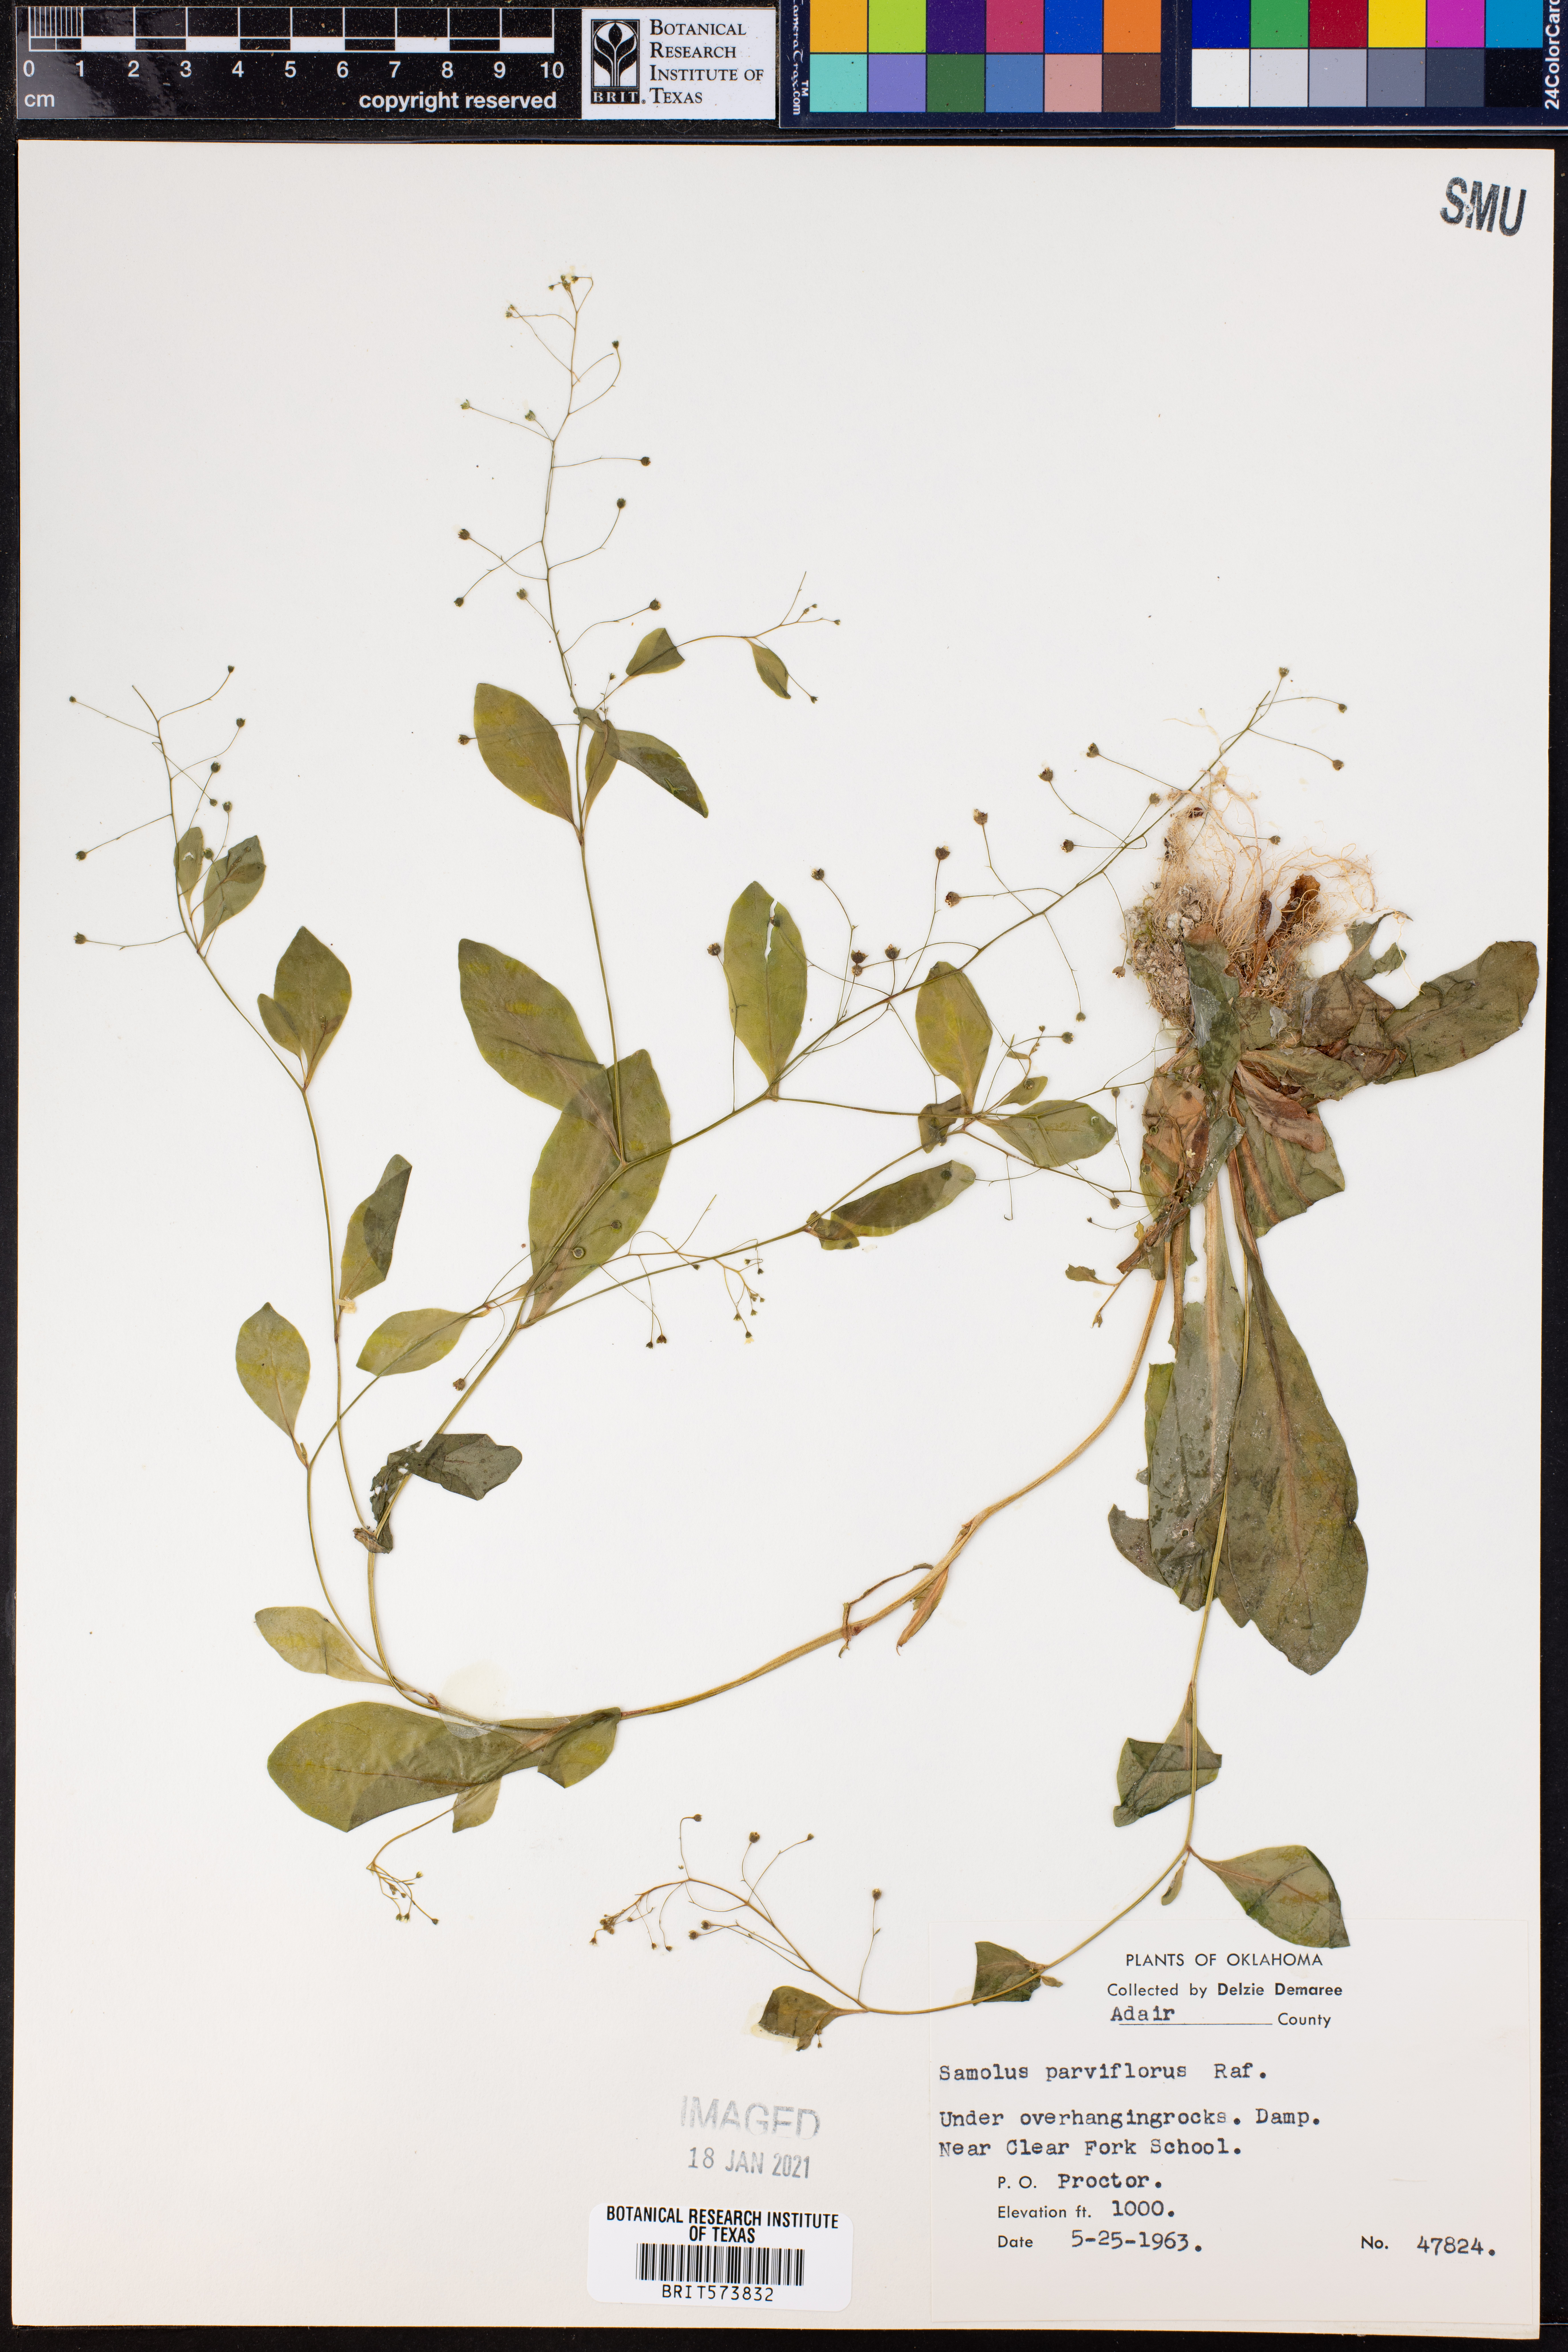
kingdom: Plantae
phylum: Tracheophyta
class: Magnoliopsida
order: Ericales
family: Primulaceae
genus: Samolus
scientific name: Samolus parviflorus
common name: False water pimpernel
